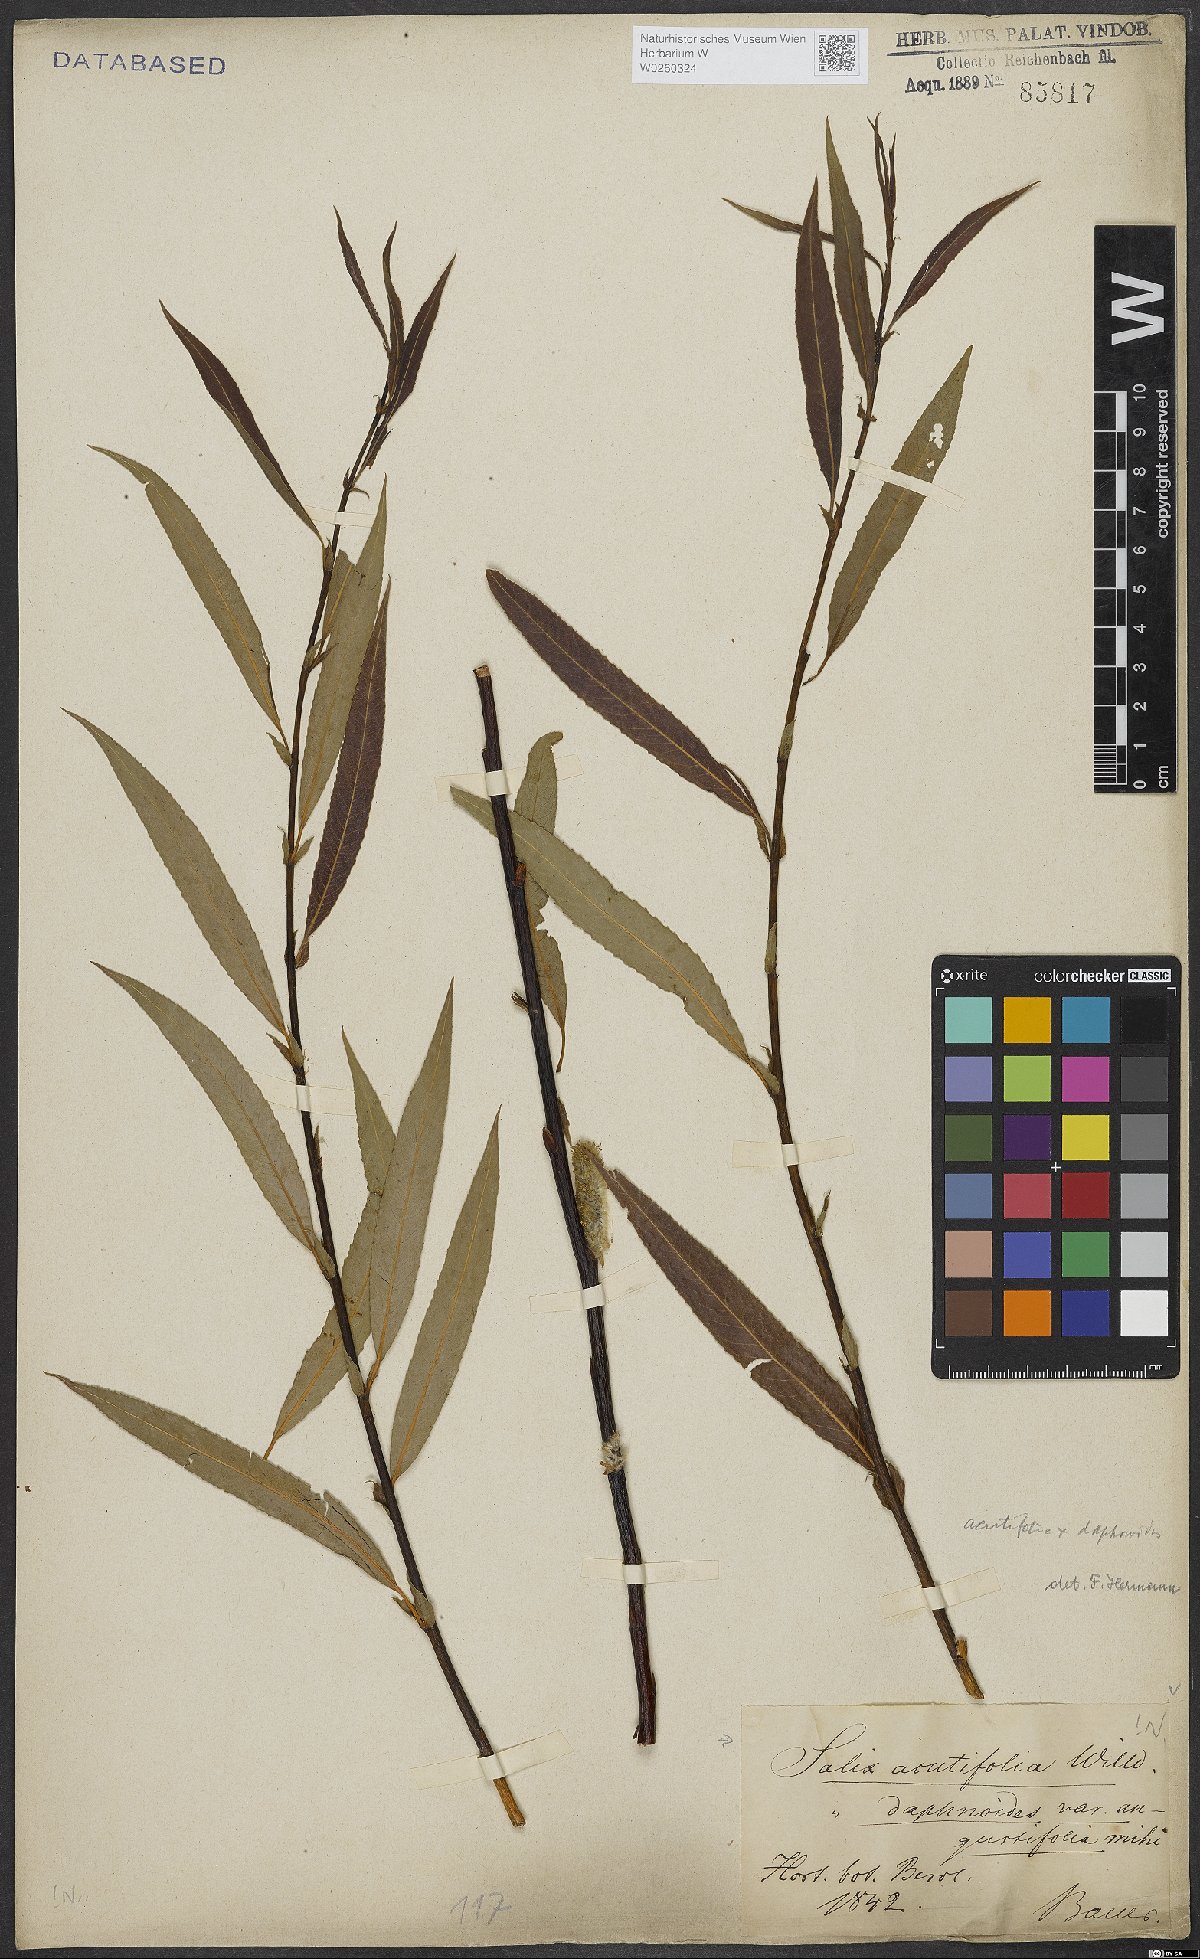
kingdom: Plantae
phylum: Tracheophyta
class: Magnoliopsida
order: Malpighiales
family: Salicaceae
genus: Salix
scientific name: Salix acutifolia
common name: Siberian violet-willow
